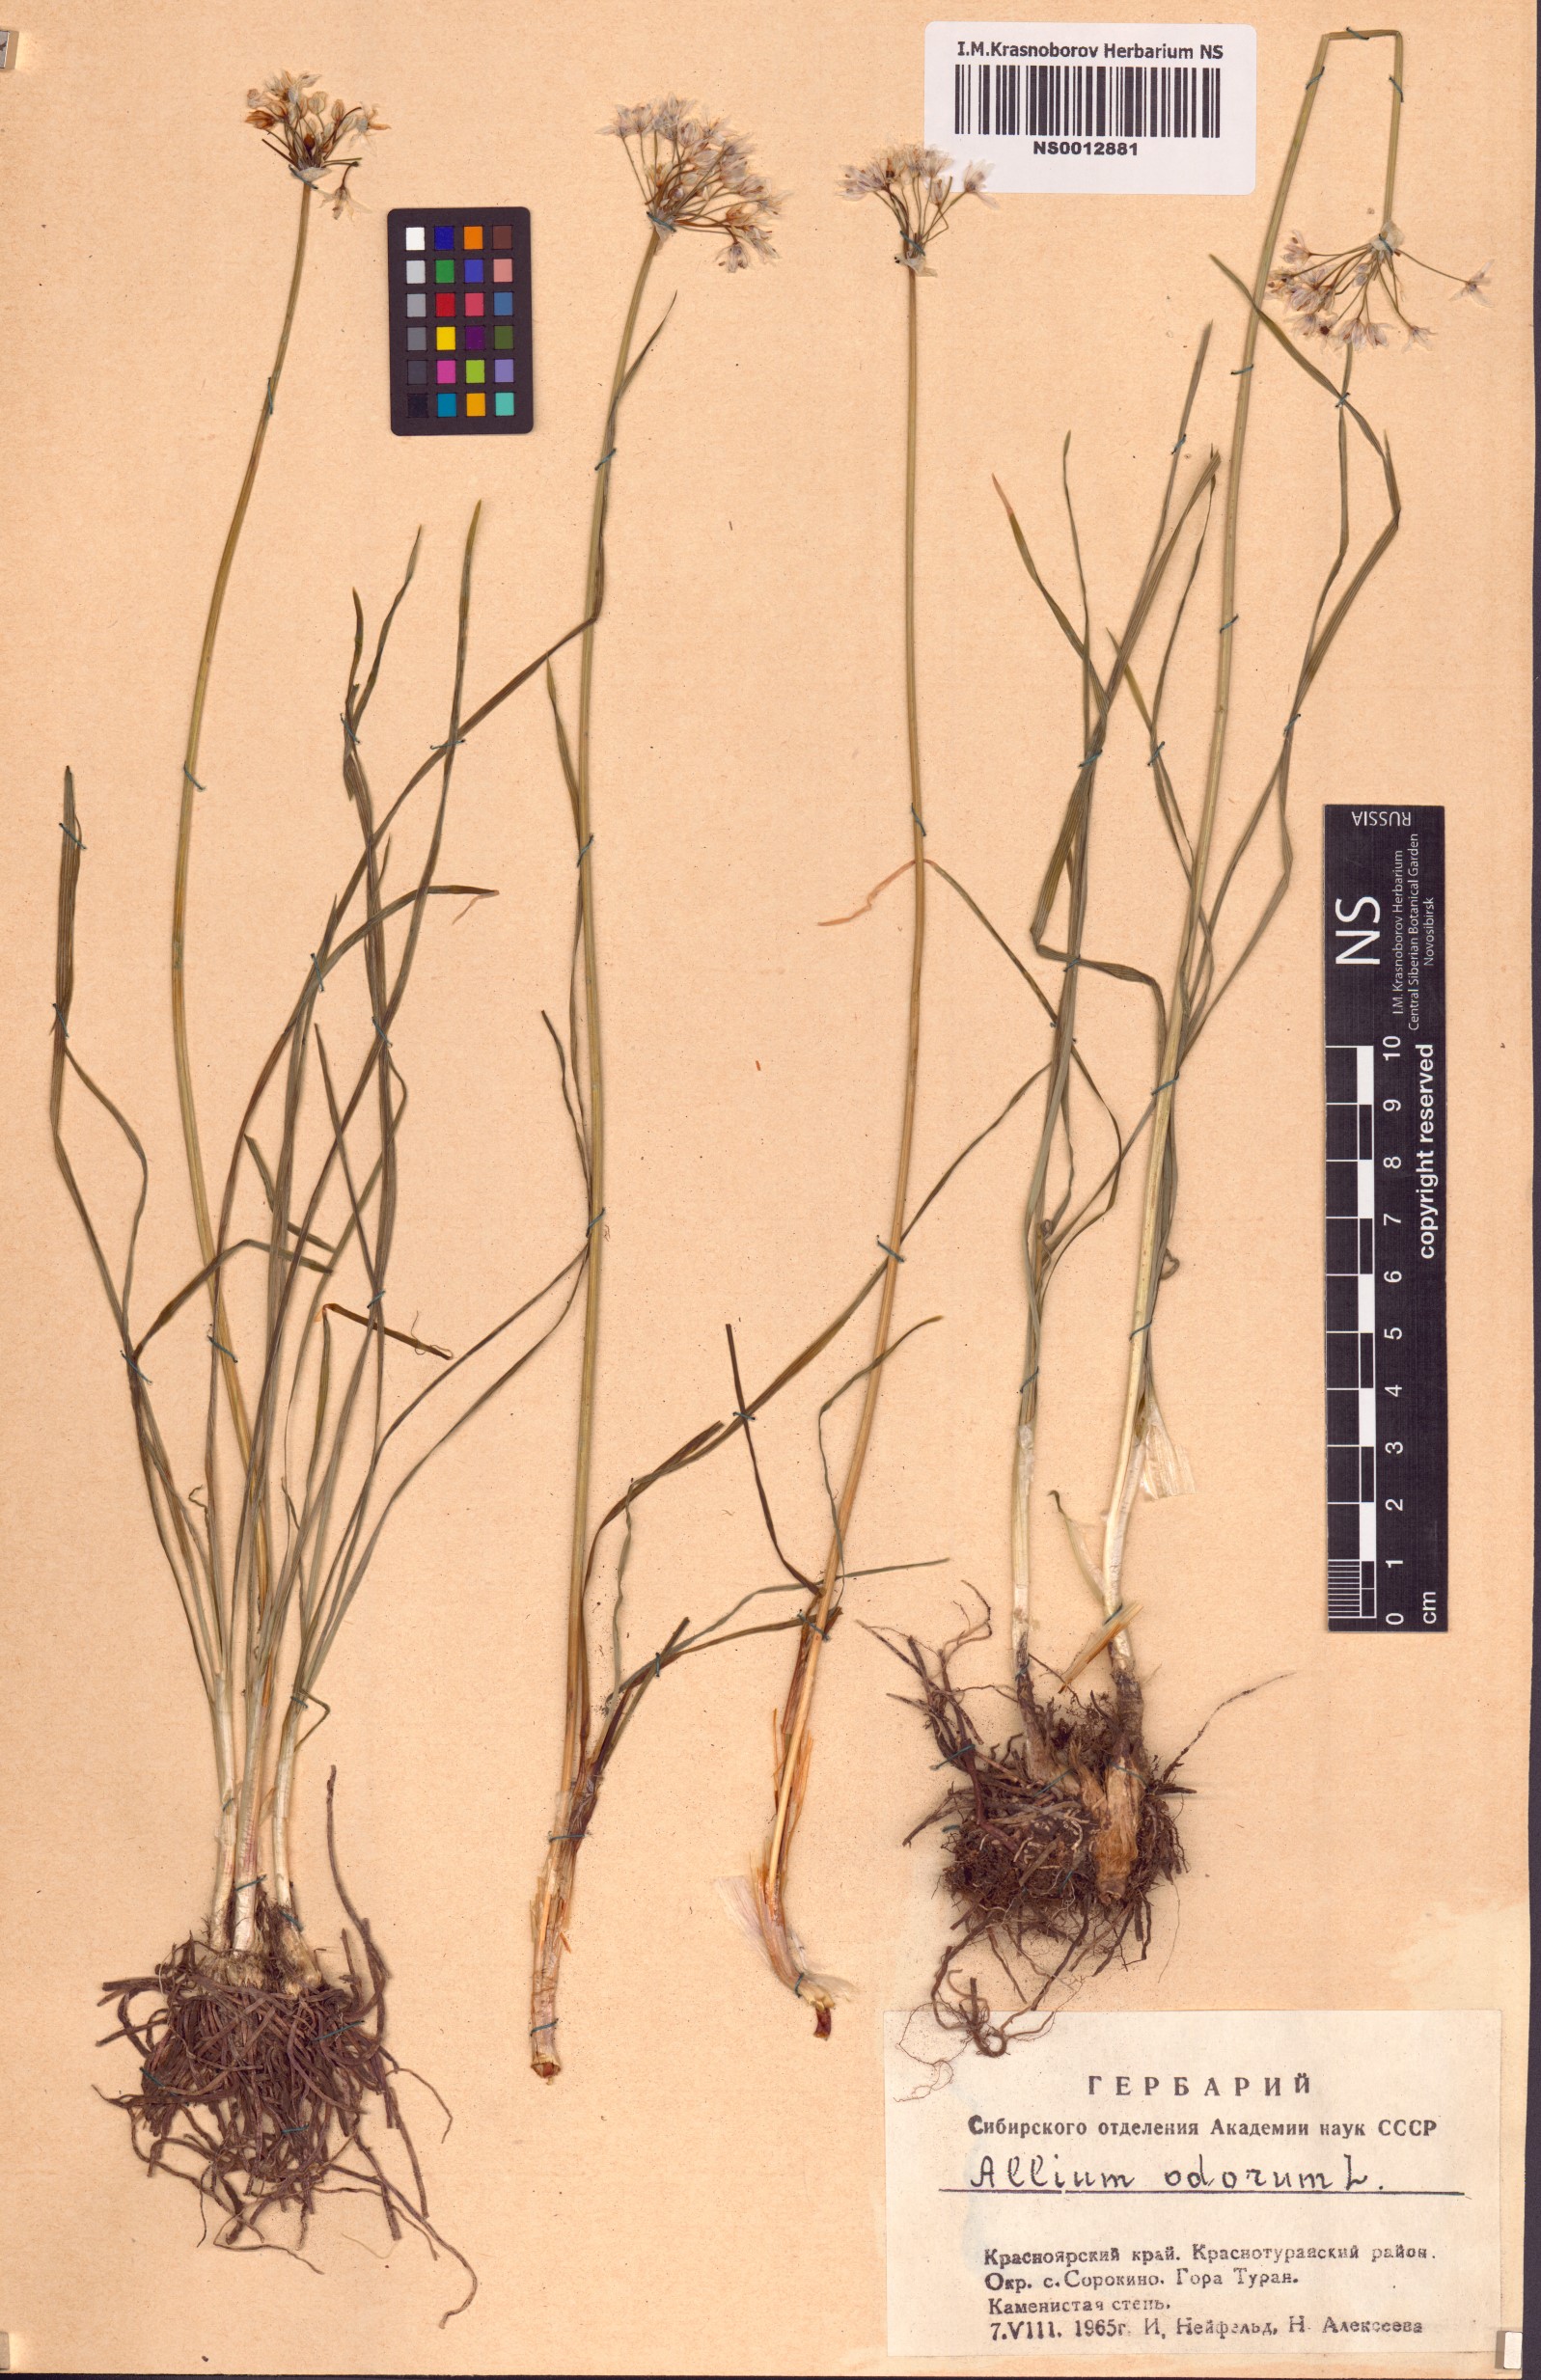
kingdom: Plantae
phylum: Tracheophyta
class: Liliopsida
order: Asparagales
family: Amaryllidaceae
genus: Allium
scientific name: Allium ramosum
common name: Fragrant garlic
